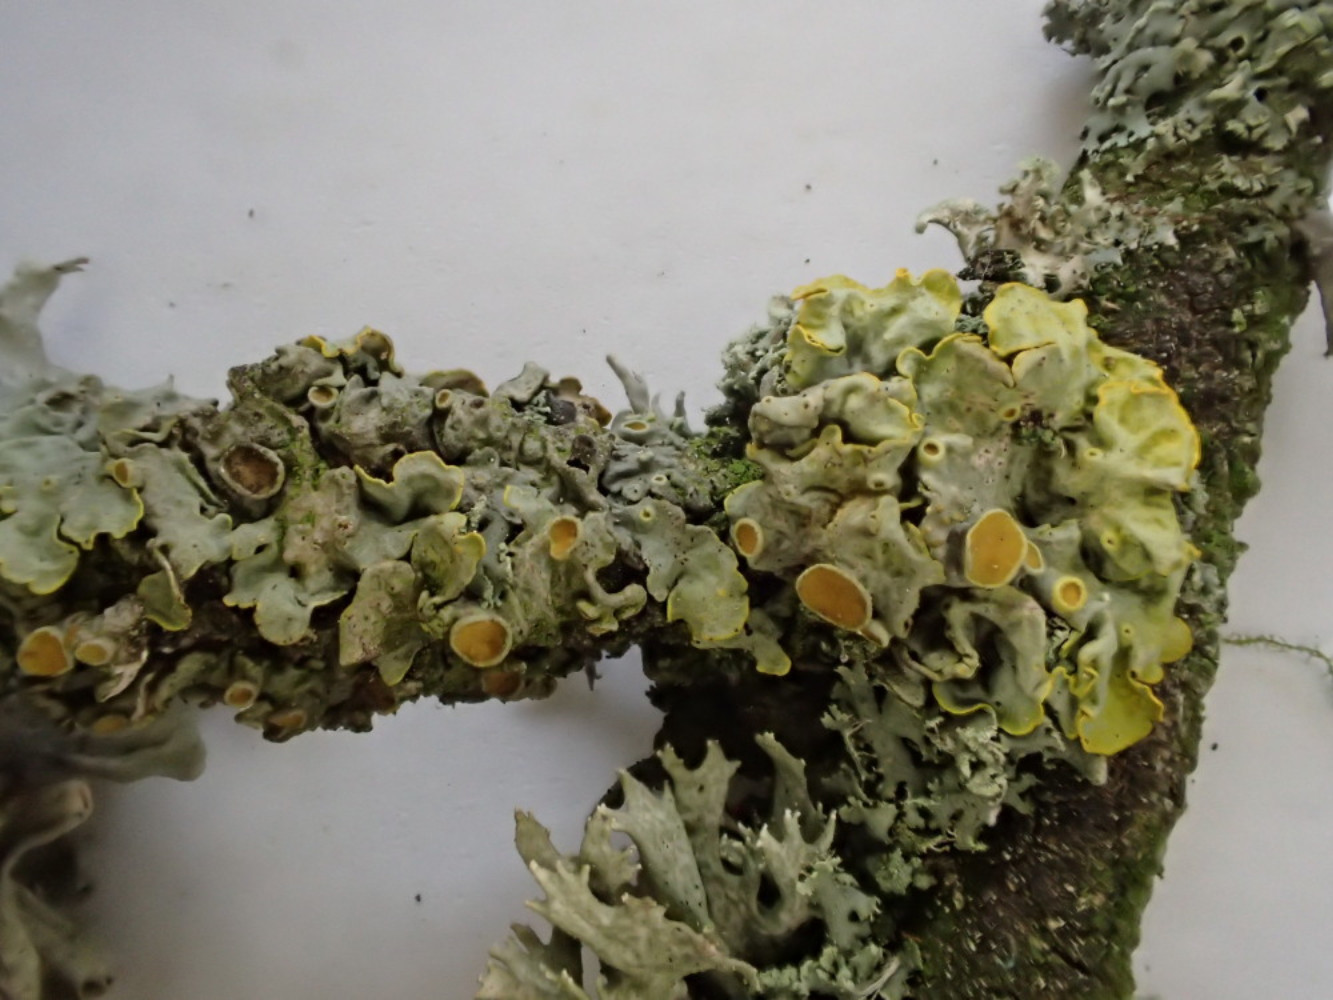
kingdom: Fungi
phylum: Ascomycota
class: Lecanoromycetes
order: Teloschistales
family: Teloschistaceae
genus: Xanthoria
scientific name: Xanthoria parietina
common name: almindelig væggelav
